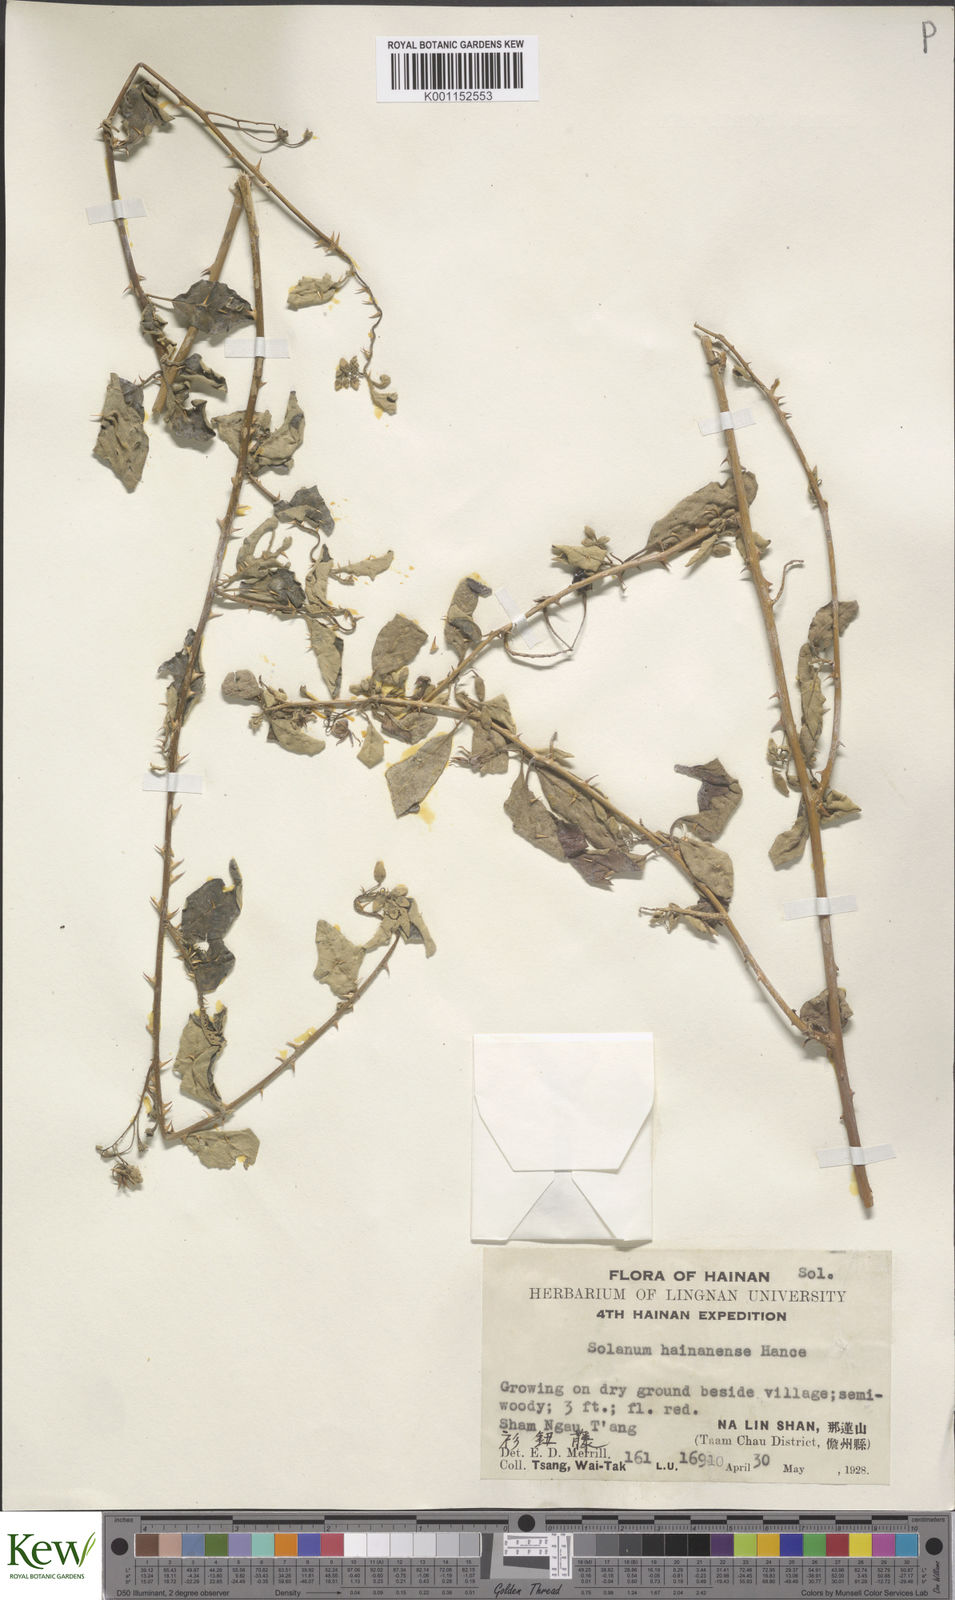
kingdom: Plantae
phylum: Tracheophyta
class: Magnoliopsida
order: Solanales
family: Solanaceae
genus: Solanum
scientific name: Solanum procumbens
